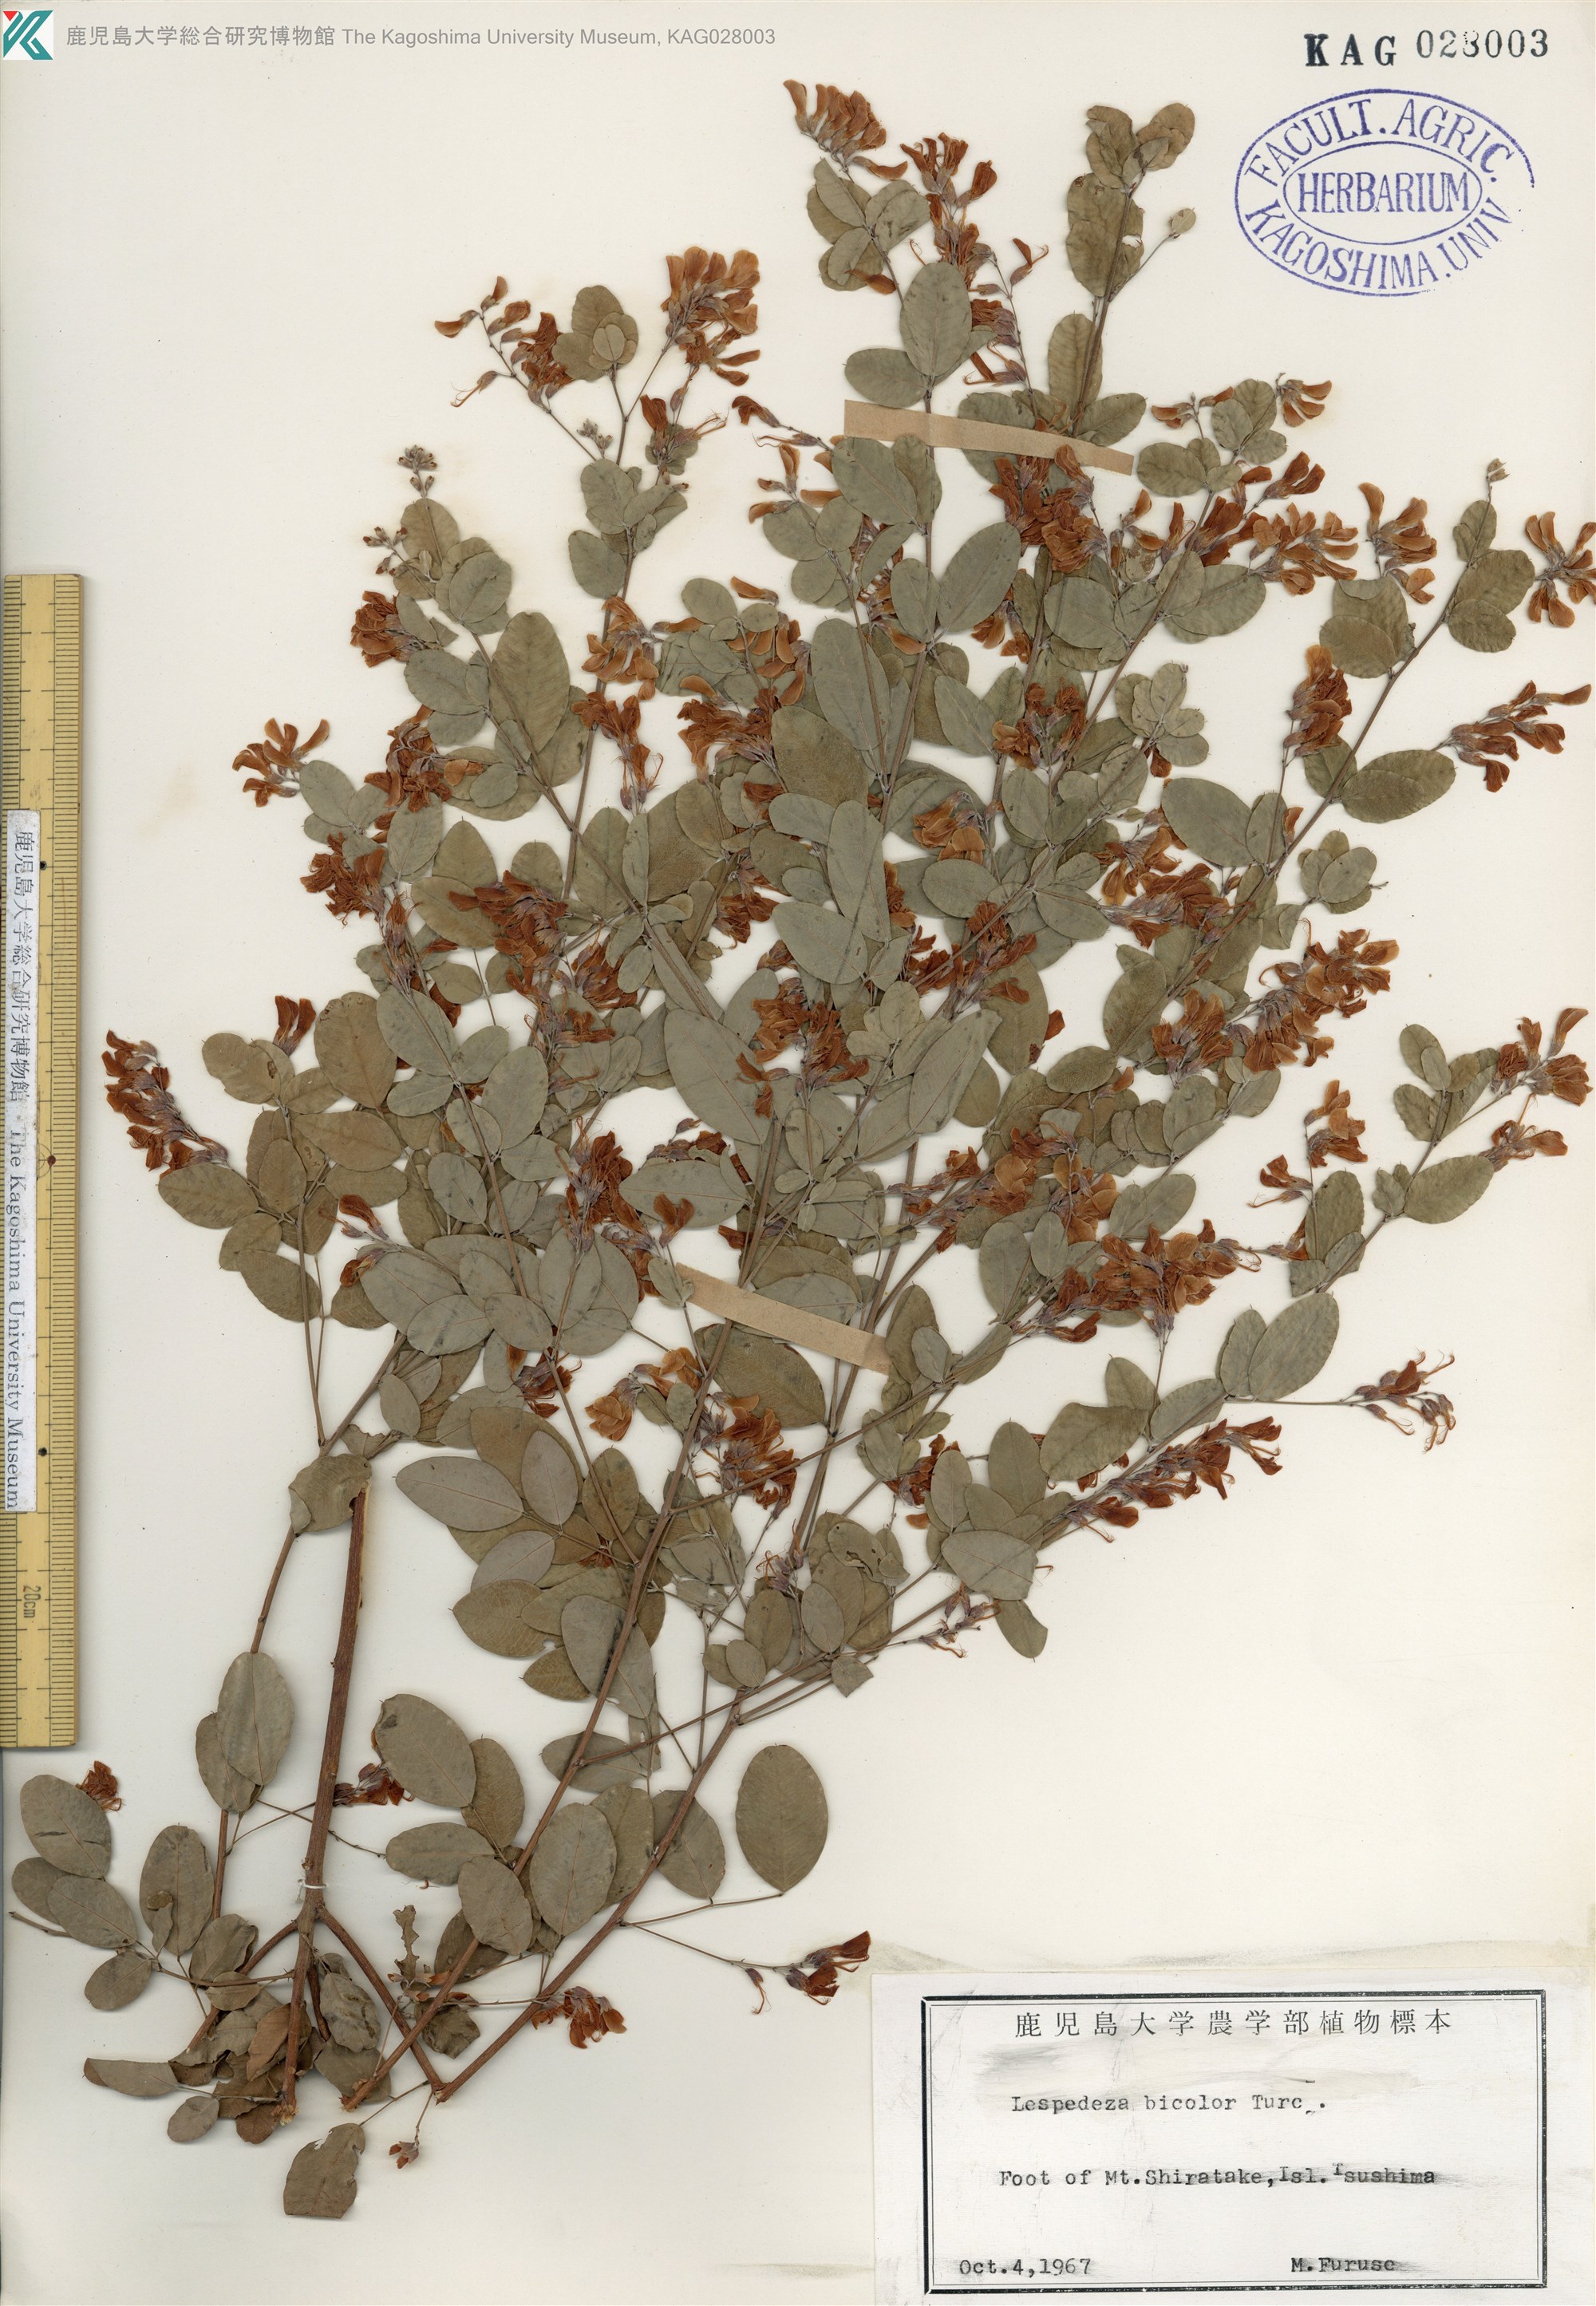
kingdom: Plantae
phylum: Tracheophyta
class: Magnoliopsida
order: Fabales
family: Fabaceae
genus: Lespedeza
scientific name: Lespedeza bicolor
